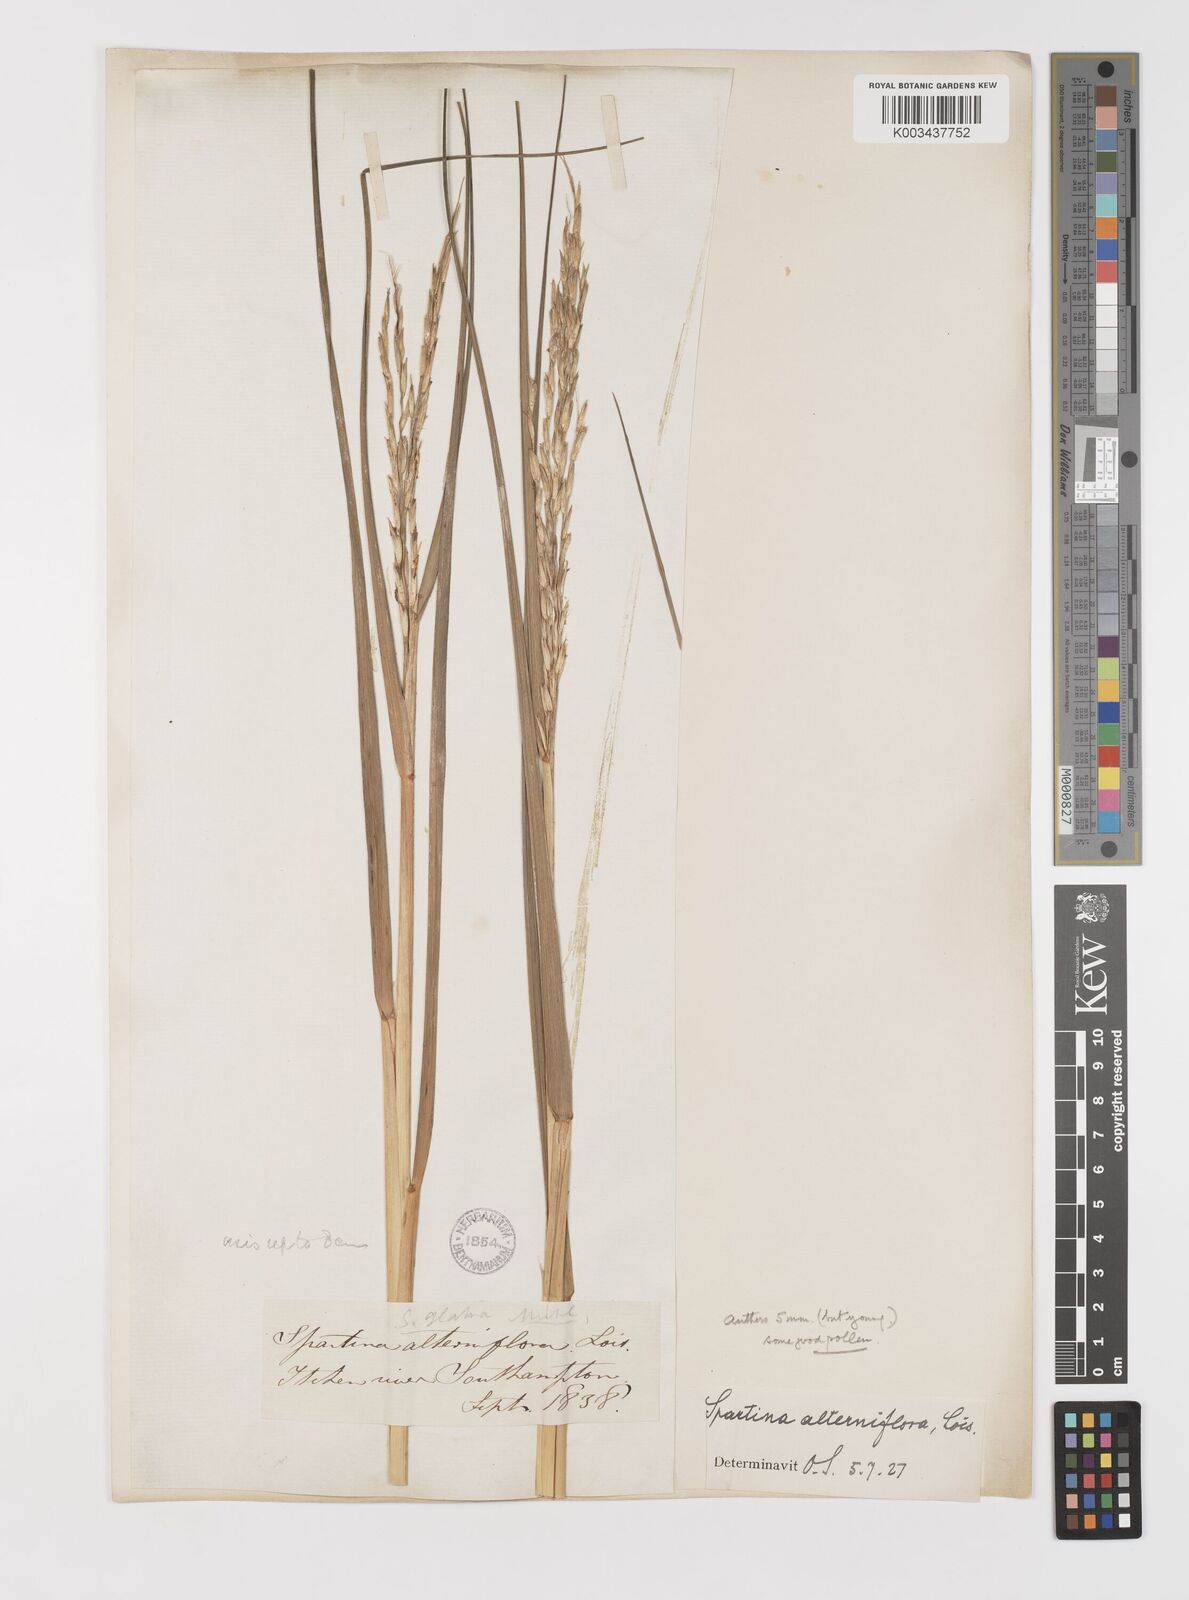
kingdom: Plantae
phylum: Tracheophyta
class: Liliopsida
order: Poales
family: Poaceae
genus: Sporobolus
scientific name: Sporobolus alterniflorus
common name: Atlantic cordgrass
